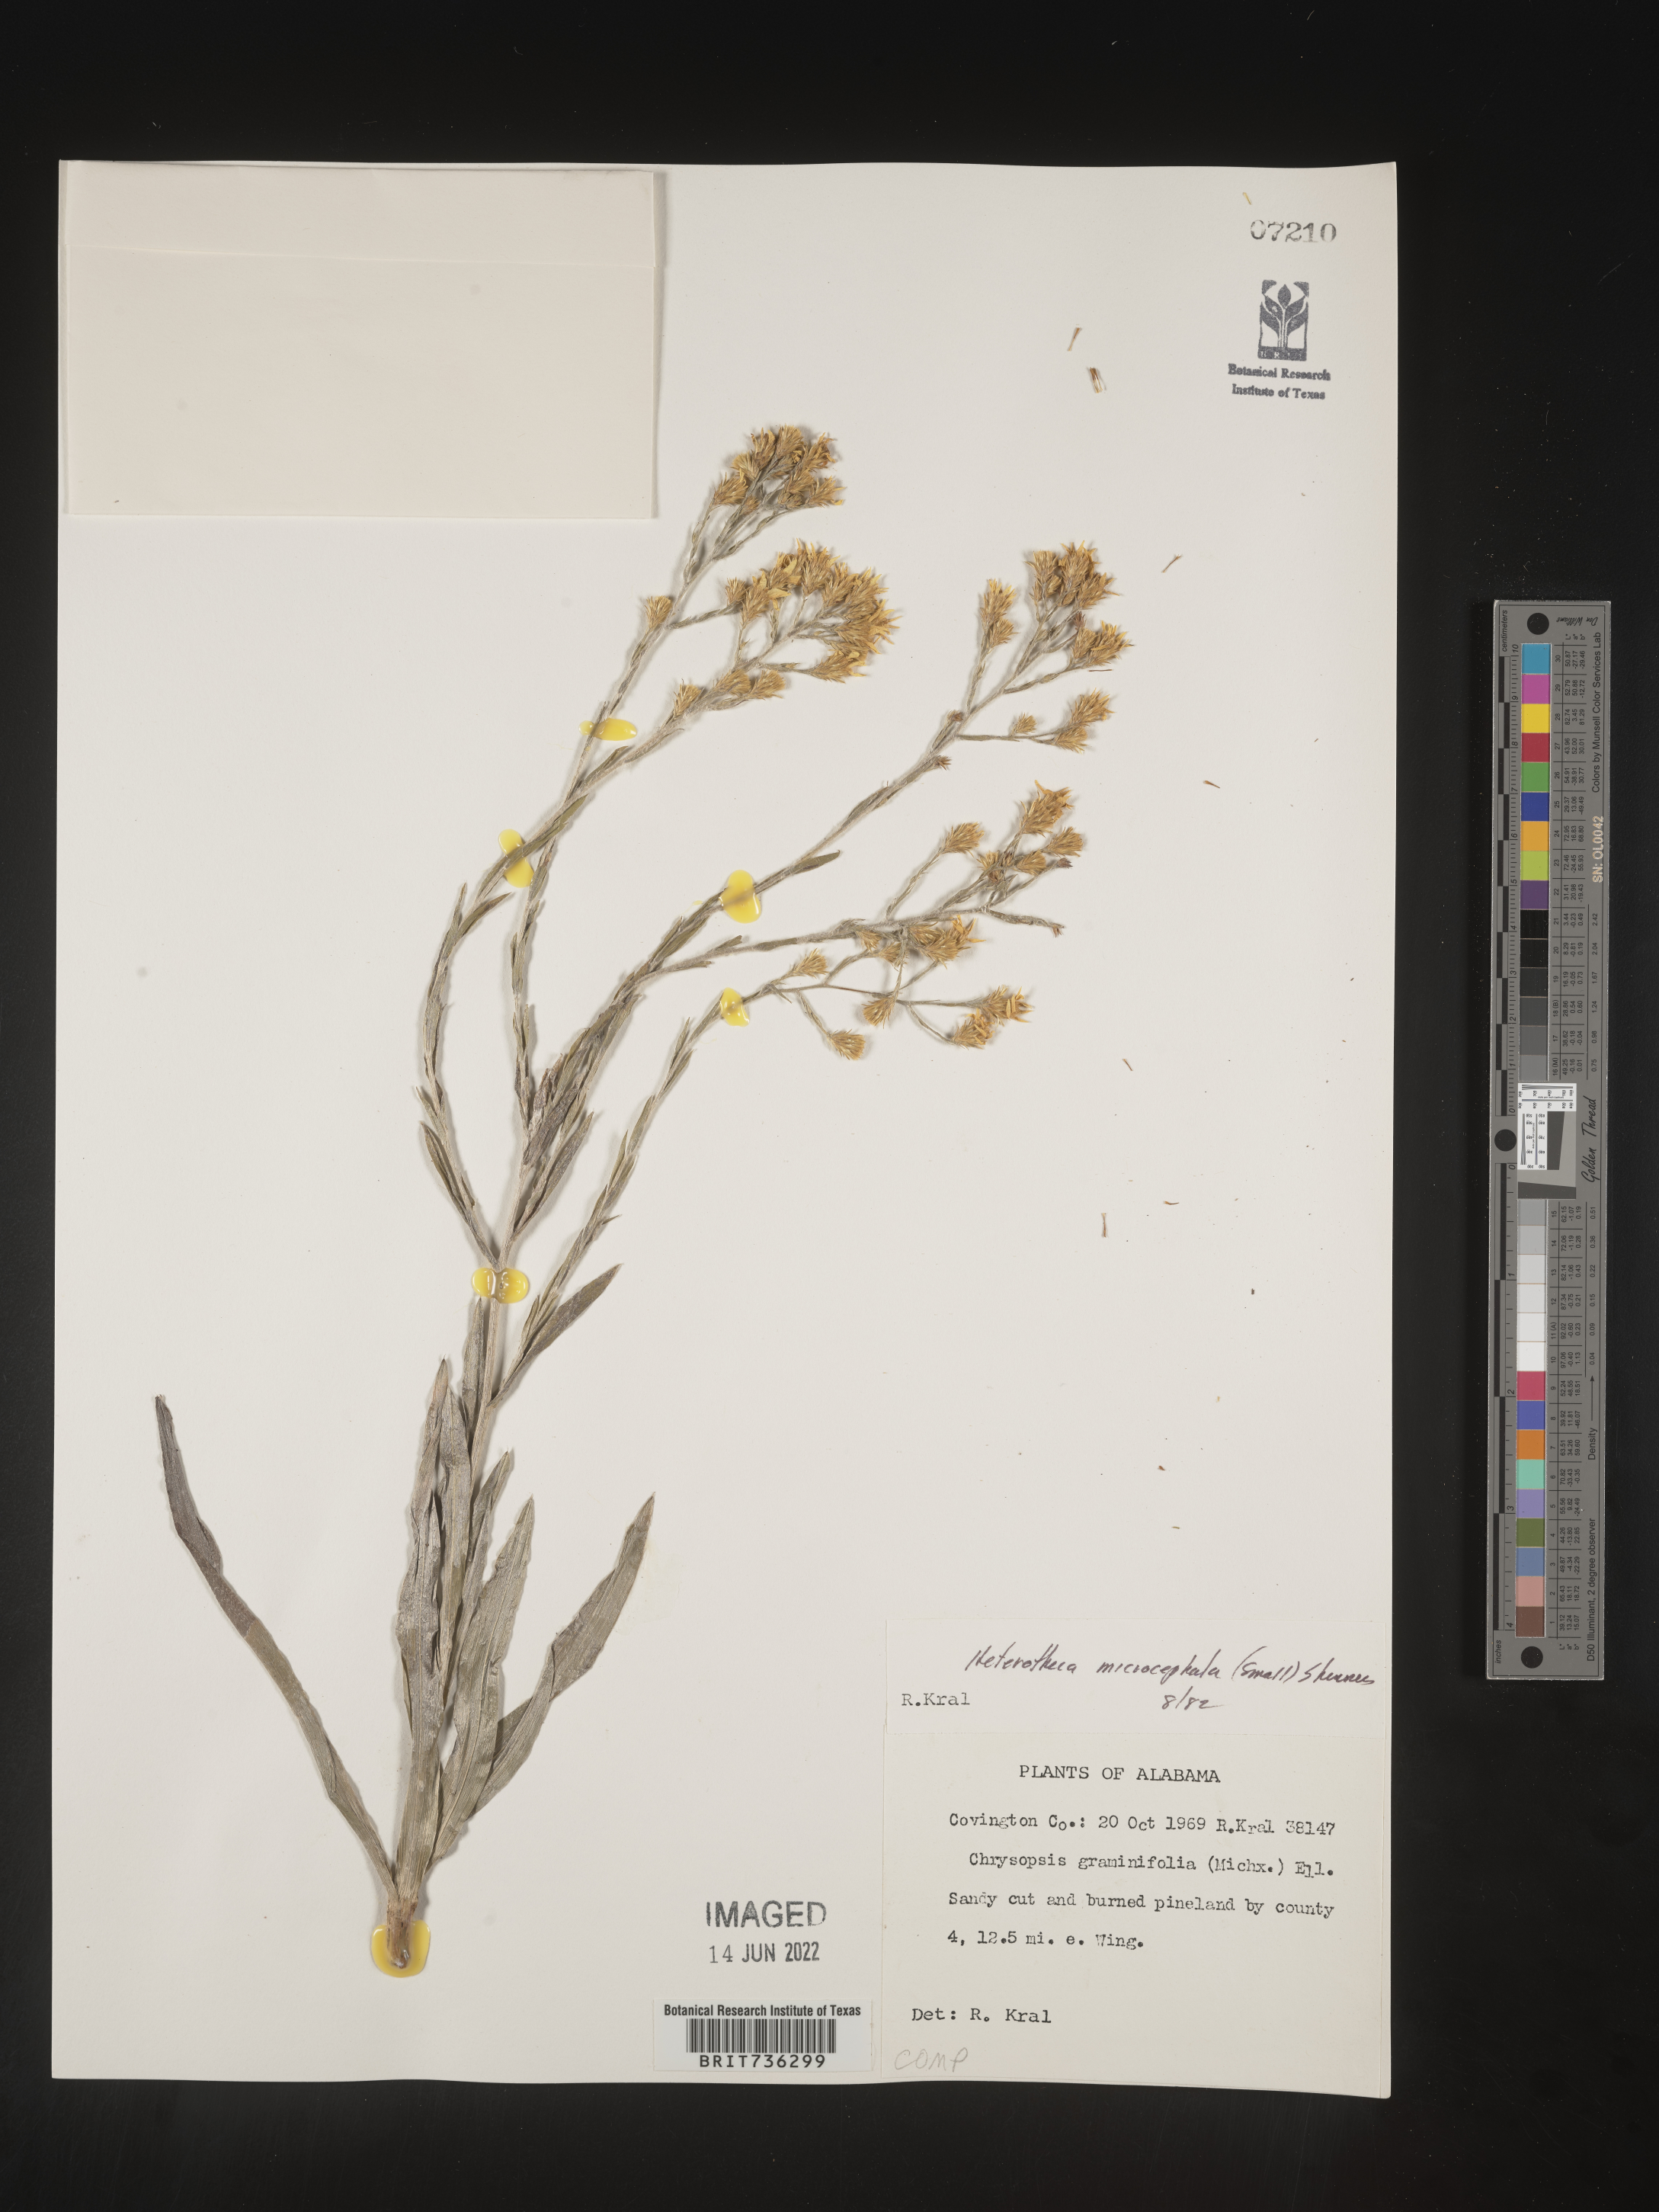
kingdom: Plantae
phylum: Tracheophyta
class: Magnoliopsida
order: Asterales
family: Asteraceae
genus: Pityopsis
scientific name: Pityopsis microcephala
